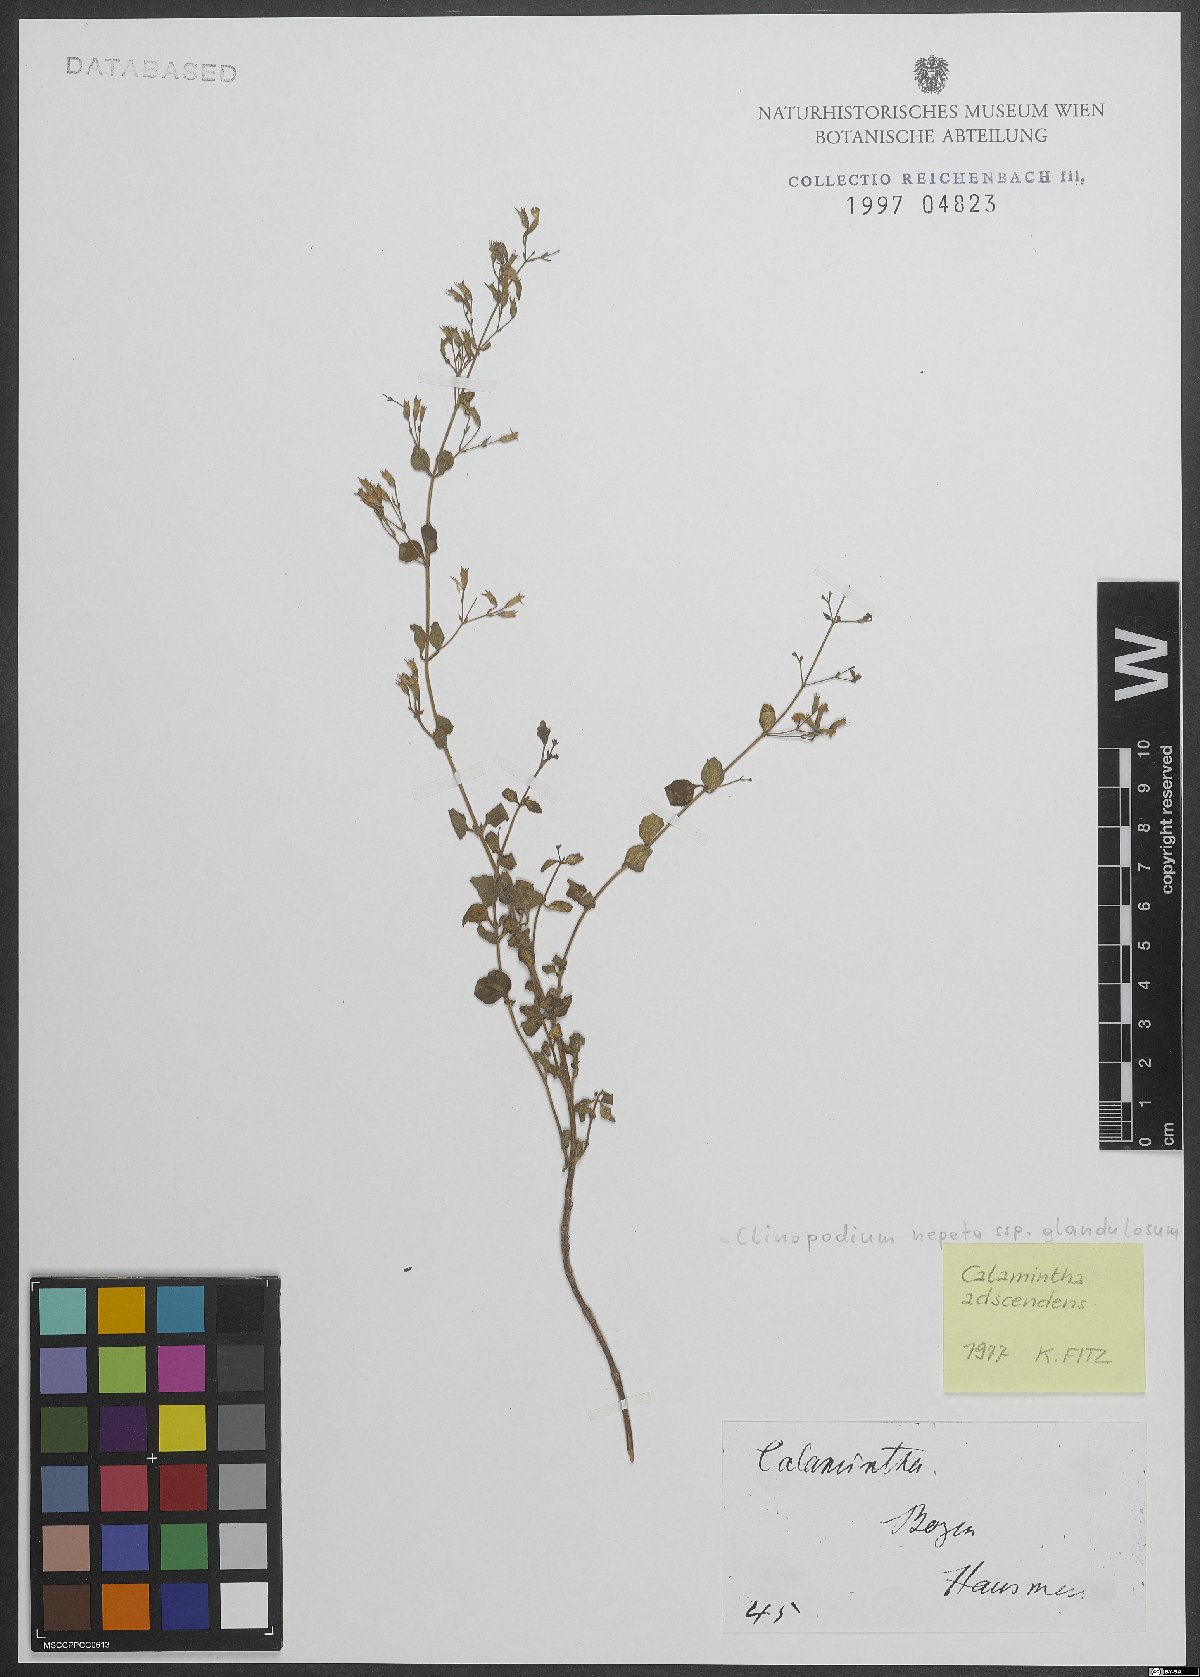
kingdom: Plantae
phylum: Tracheophyta
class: Magnoliopsida
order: Lamiales
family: Lamiaceae
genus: Clinopodium
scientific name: Clinopodium nepeta
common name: Lesser calamint
